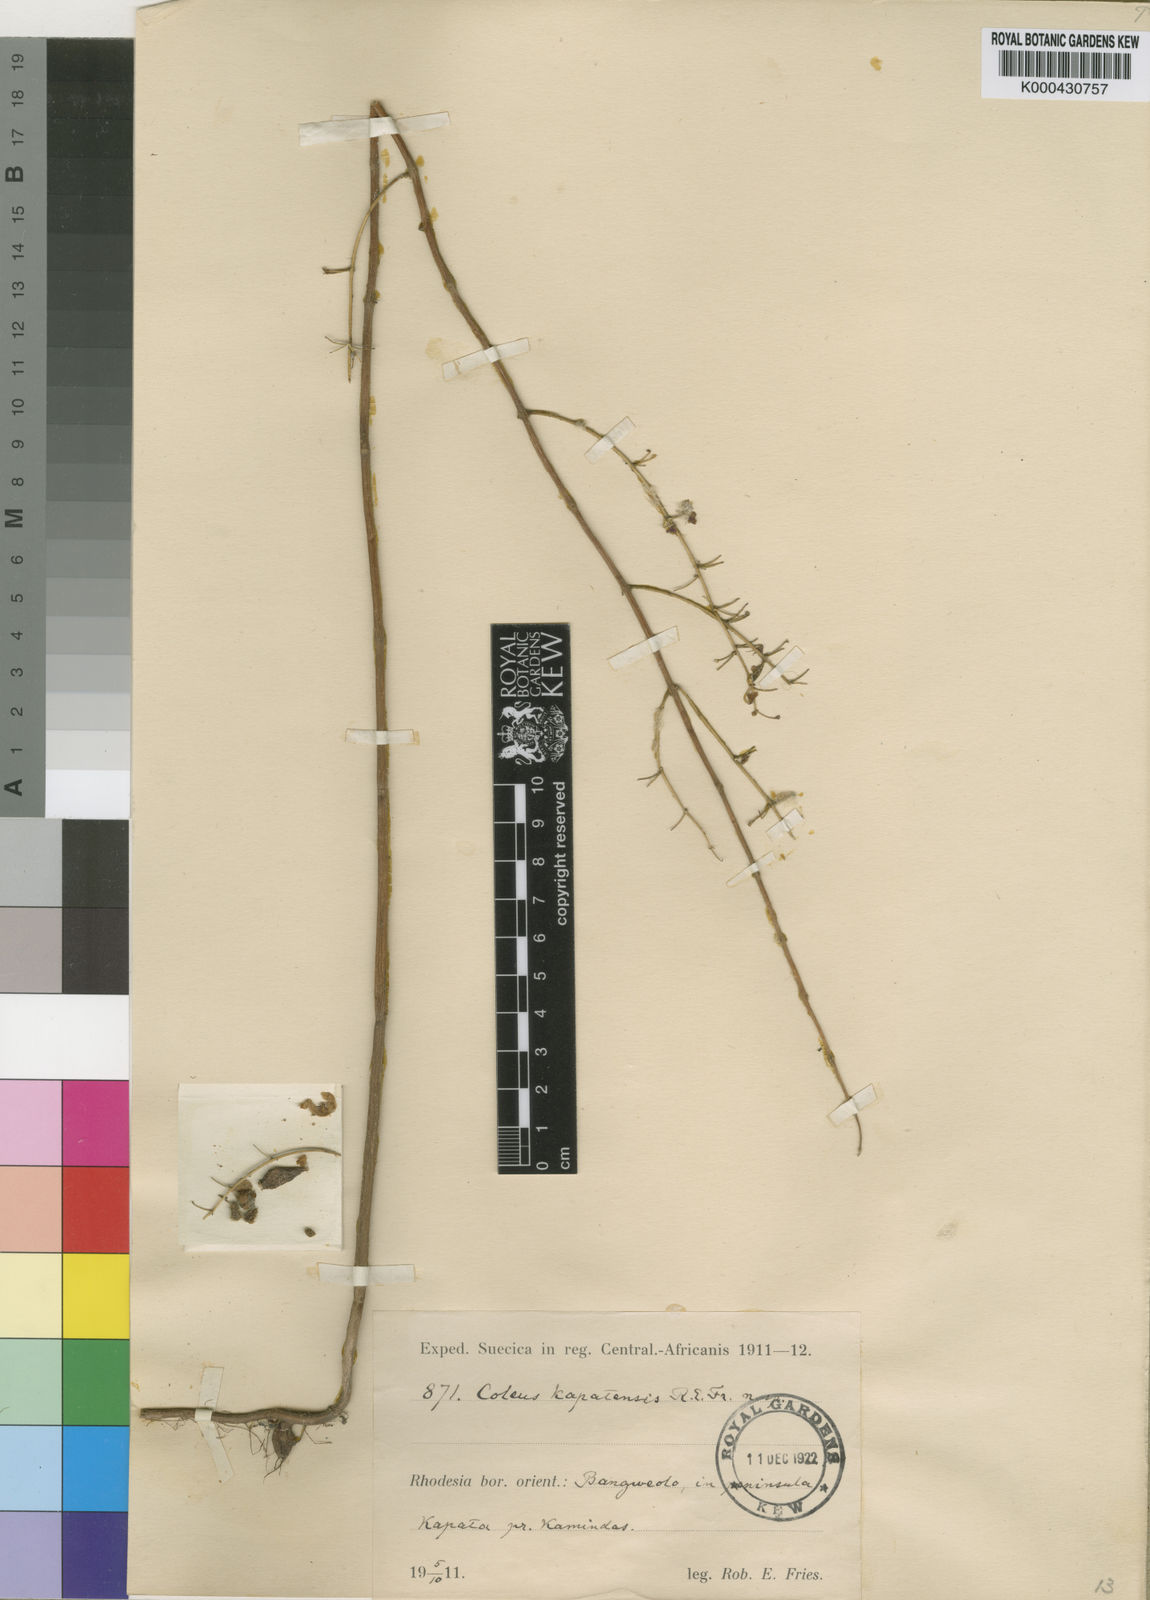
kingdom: Plantae
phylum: Tracheophyta
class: Magnoliopsida
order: Lamiales
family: Lamiaceae
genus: Coleus
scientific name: Coleus kapatensis
